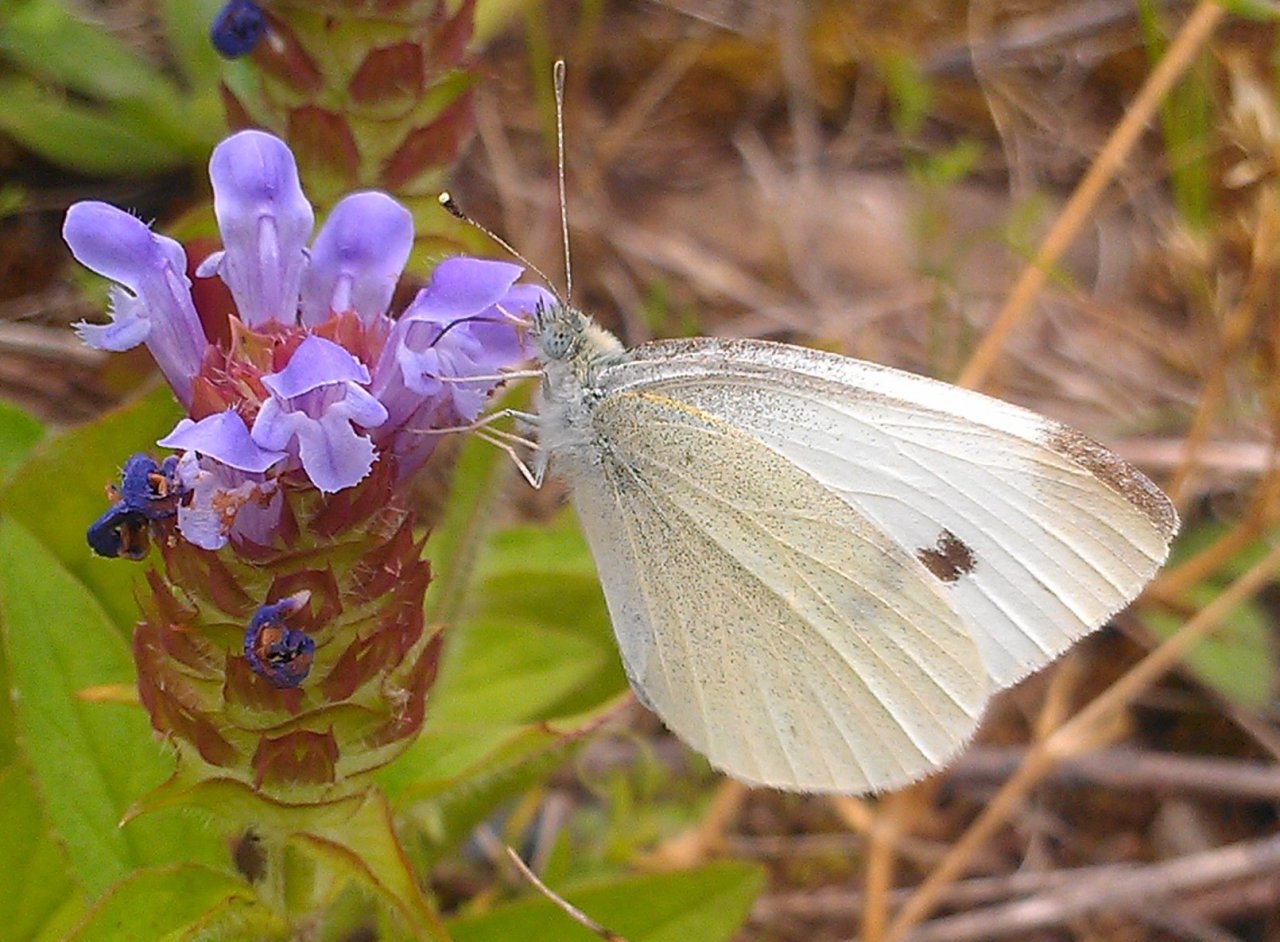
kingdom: Animalia
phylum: Arthropoda
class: Insecta
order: Lepidoptera
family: Pieridae
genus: Pieris
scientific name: Pieris rapae
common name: Cabbage White
